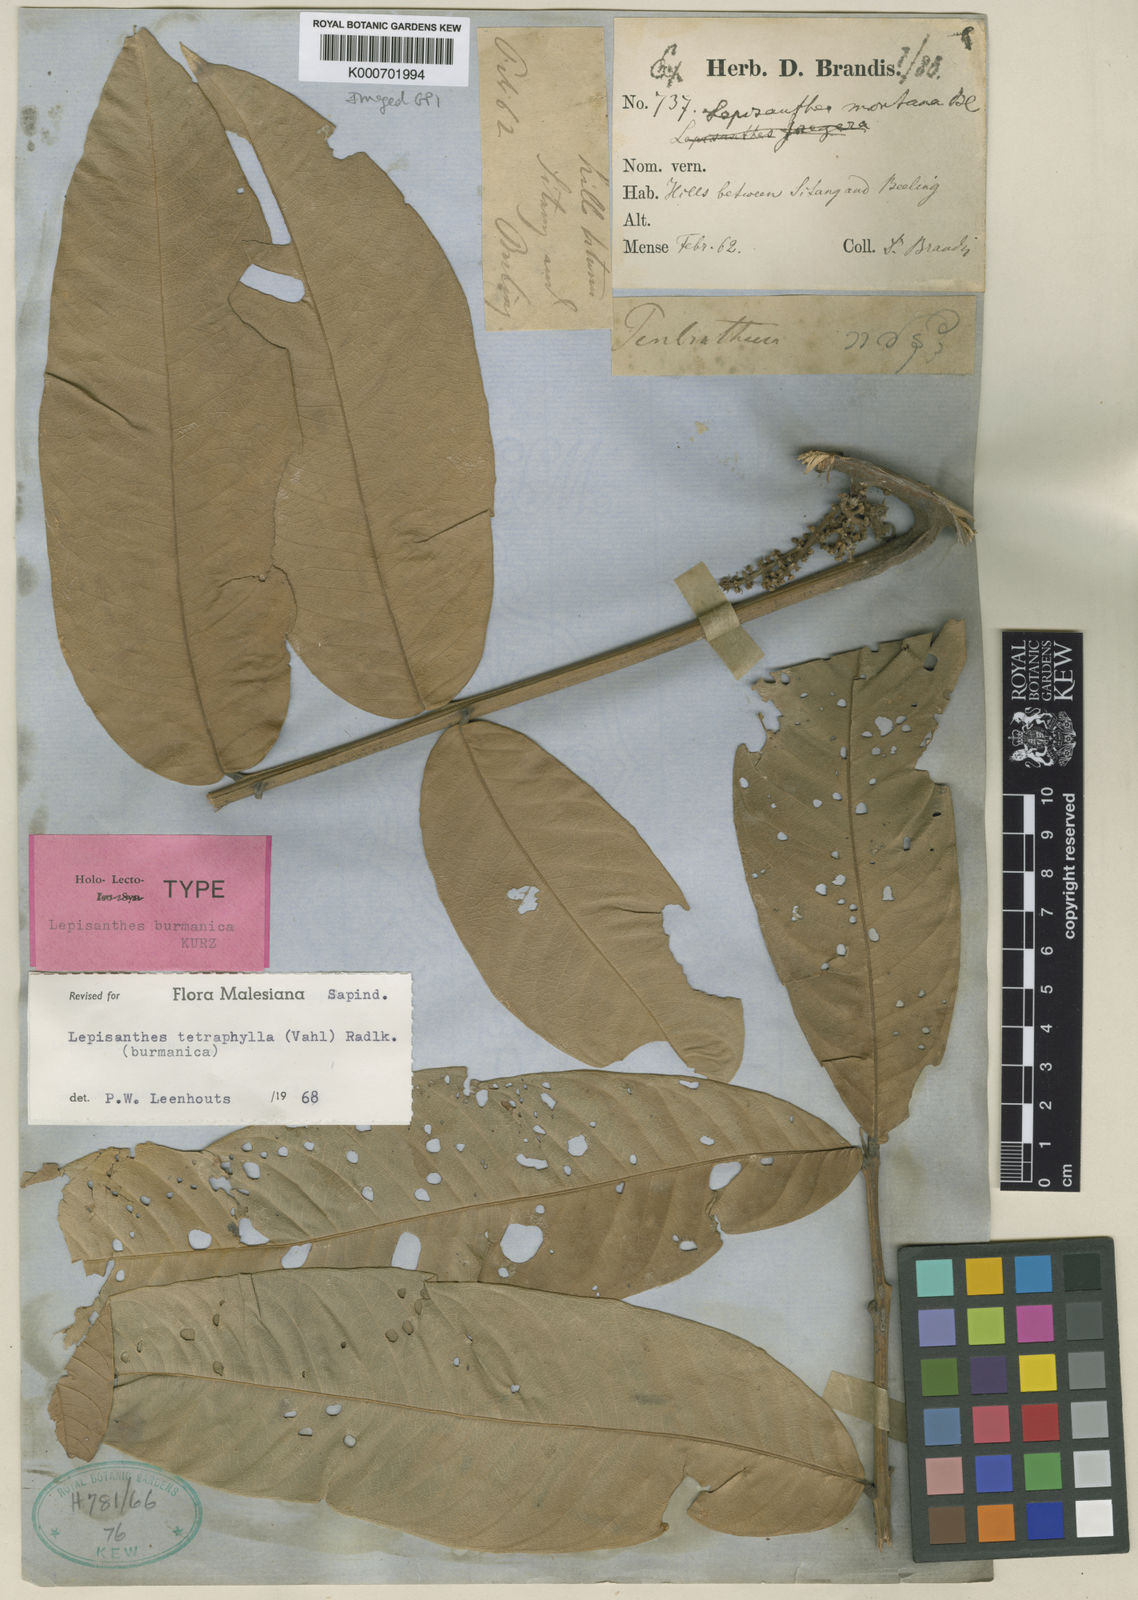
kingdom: Plantae
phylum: Tracheophyta
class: Magnoliopsida
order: Sapindales
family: Sapindaceae
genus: Lepisanthes
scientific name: Lepisanthes tetraphylla
